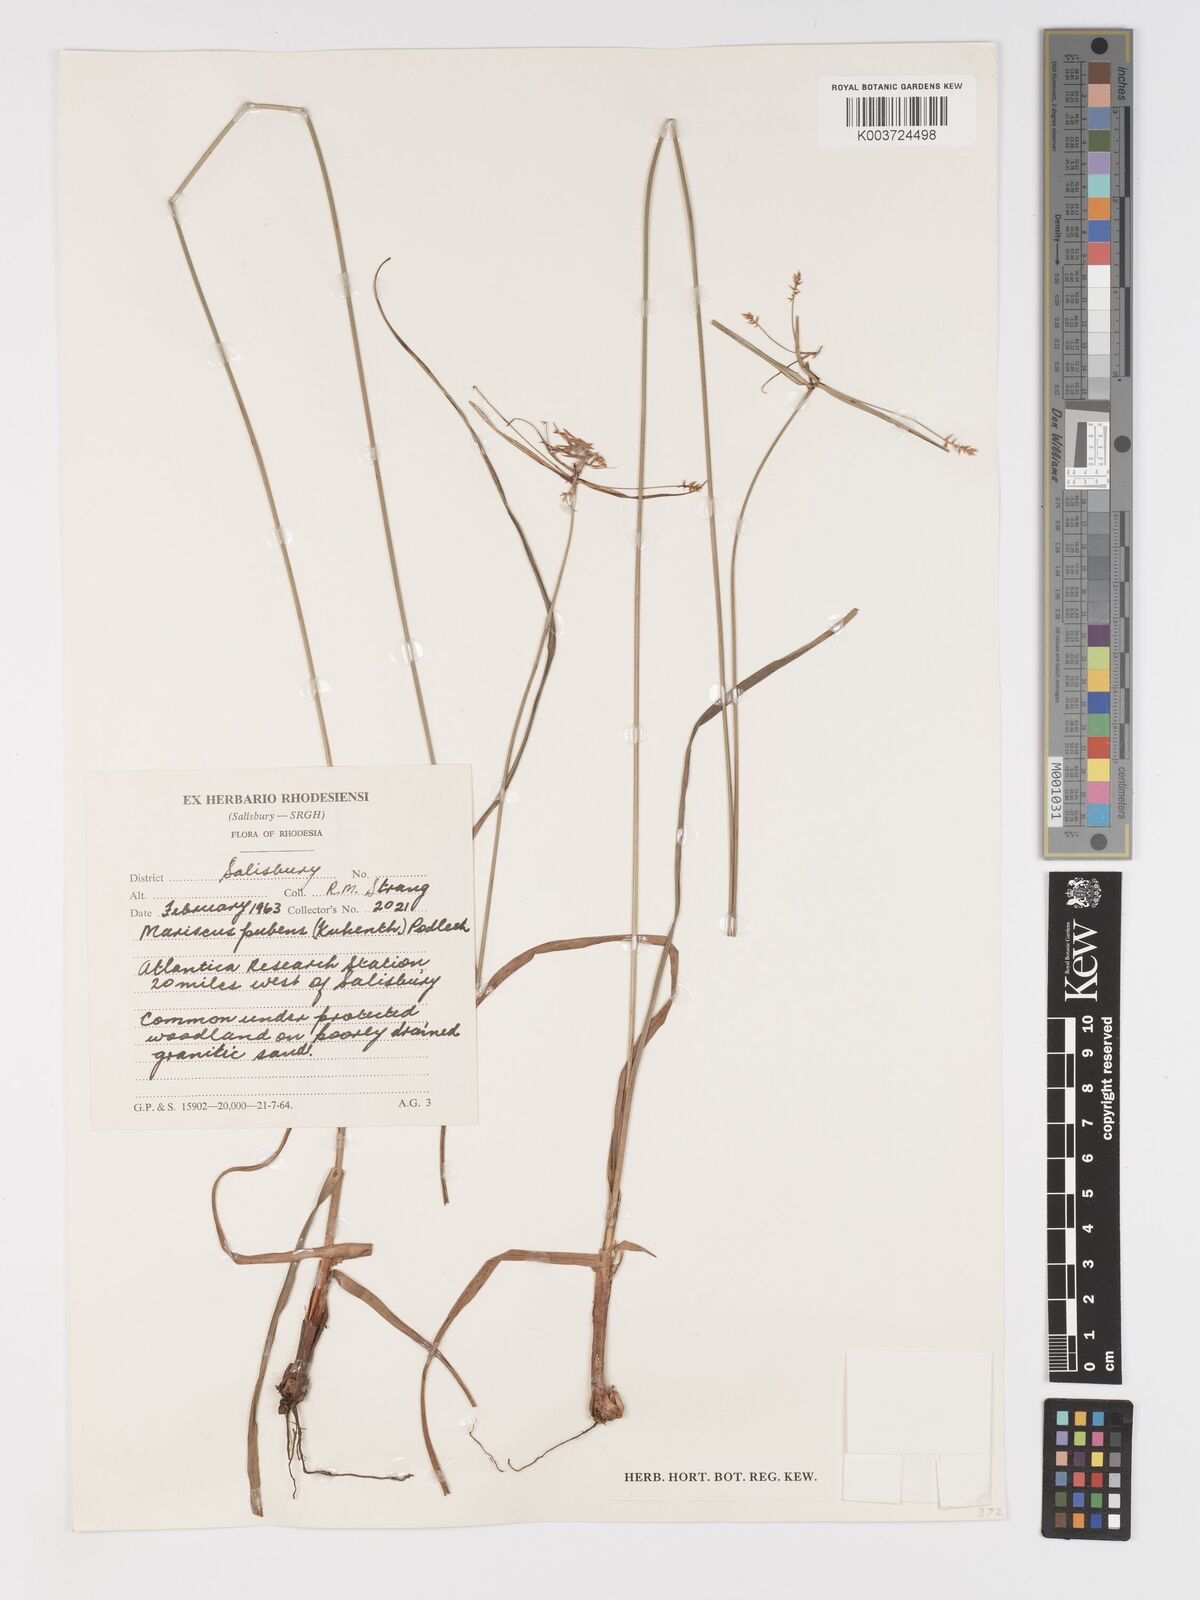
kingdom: Plantae
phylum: Tracheophyta
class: Liliopsida
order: Poales
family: Cyperaceae
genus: Cyperus
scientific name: Cyperus pubens
